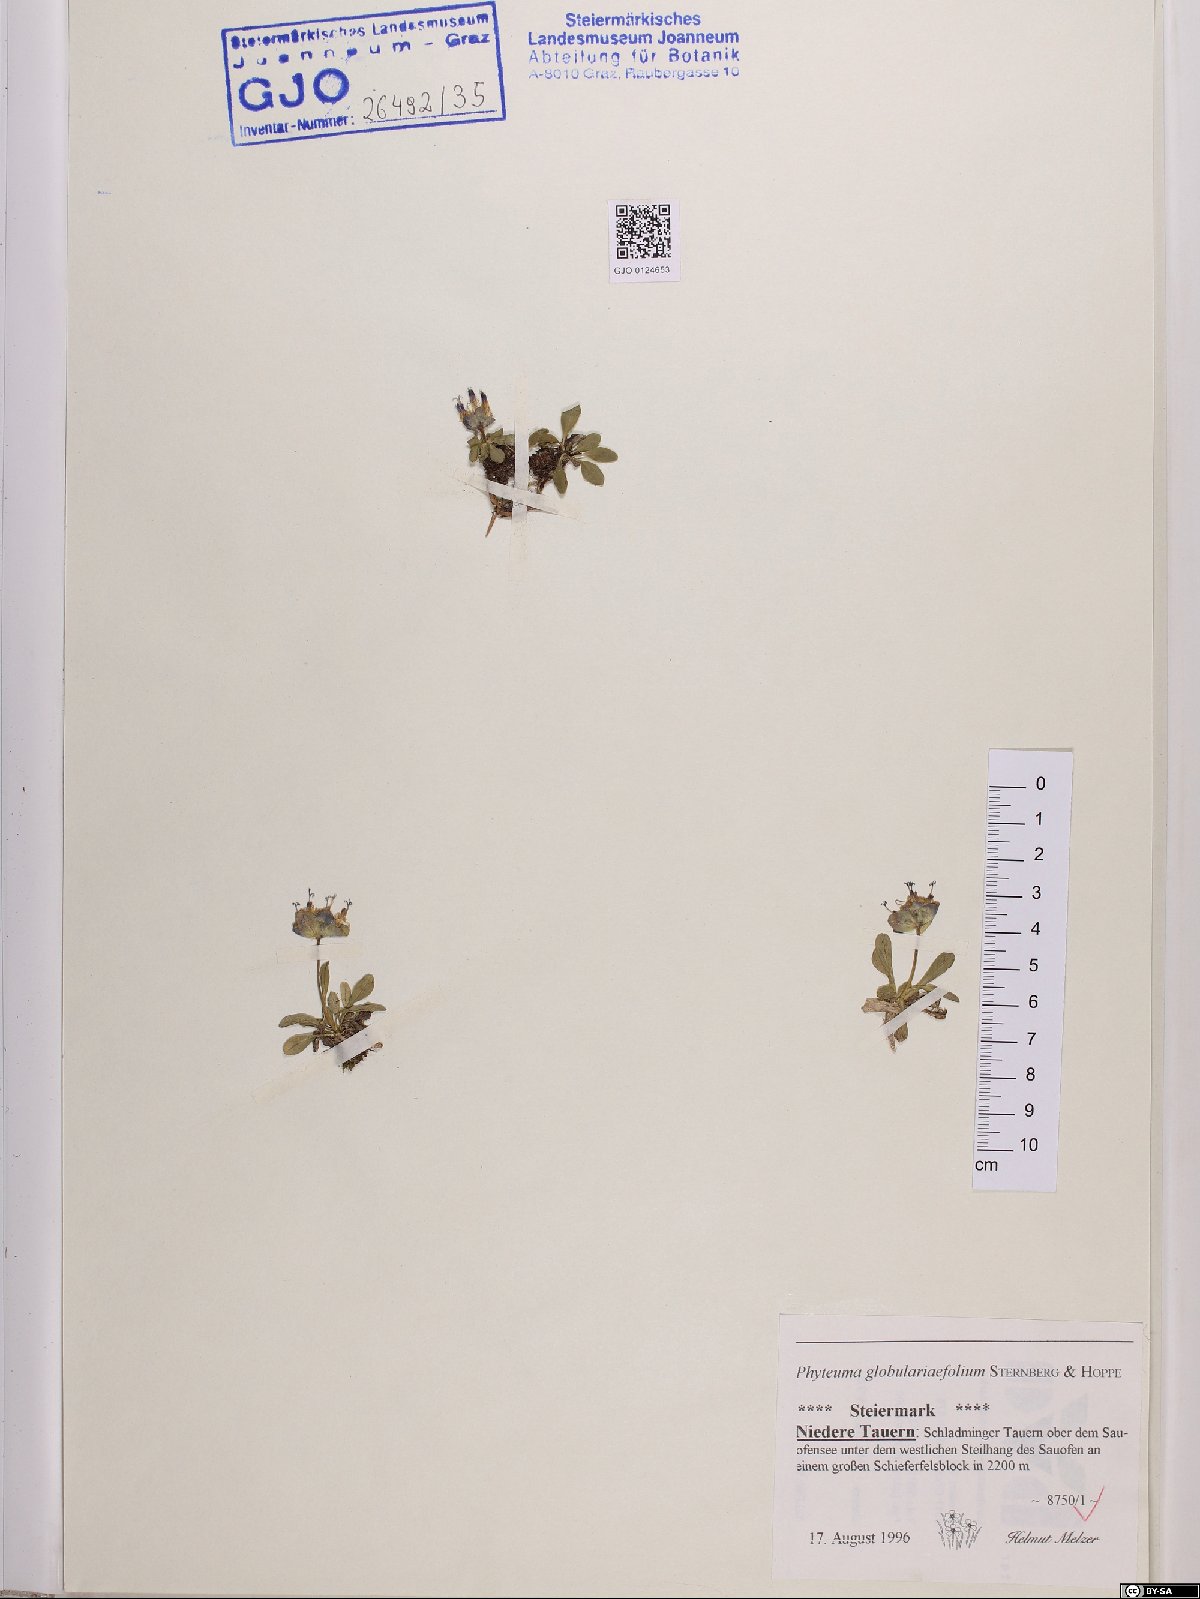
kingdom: Plantae
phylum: Tracheophyta
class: Magnoliopsida
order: Asterales
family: Campanulaceae
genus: Phyteuma
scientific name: Phyteuma globulariifolium
